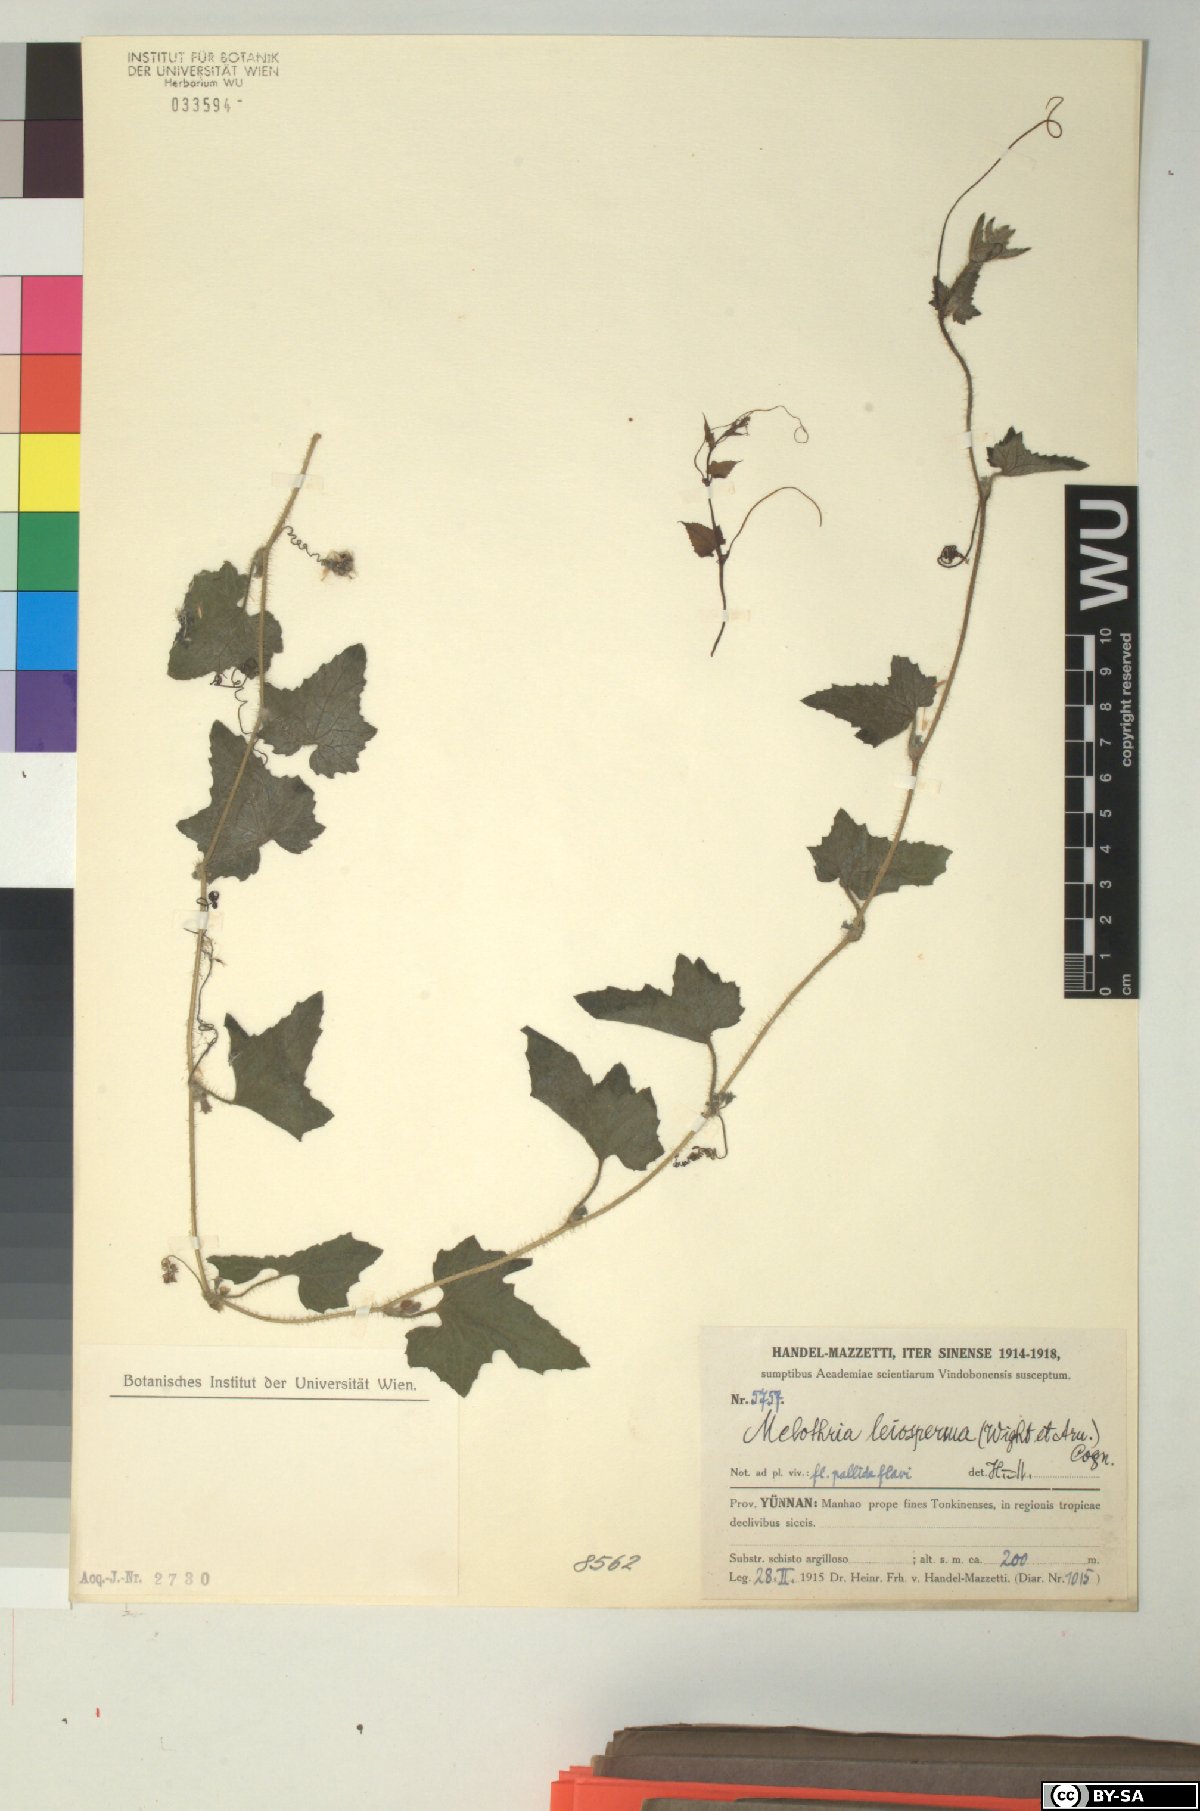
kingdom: Plantae
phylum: Tracheophyta
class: Magnoliopsida
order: Cucurbitales
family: Cucurbitaceae
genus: Cucumis
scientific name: Cucumis leiospermus
